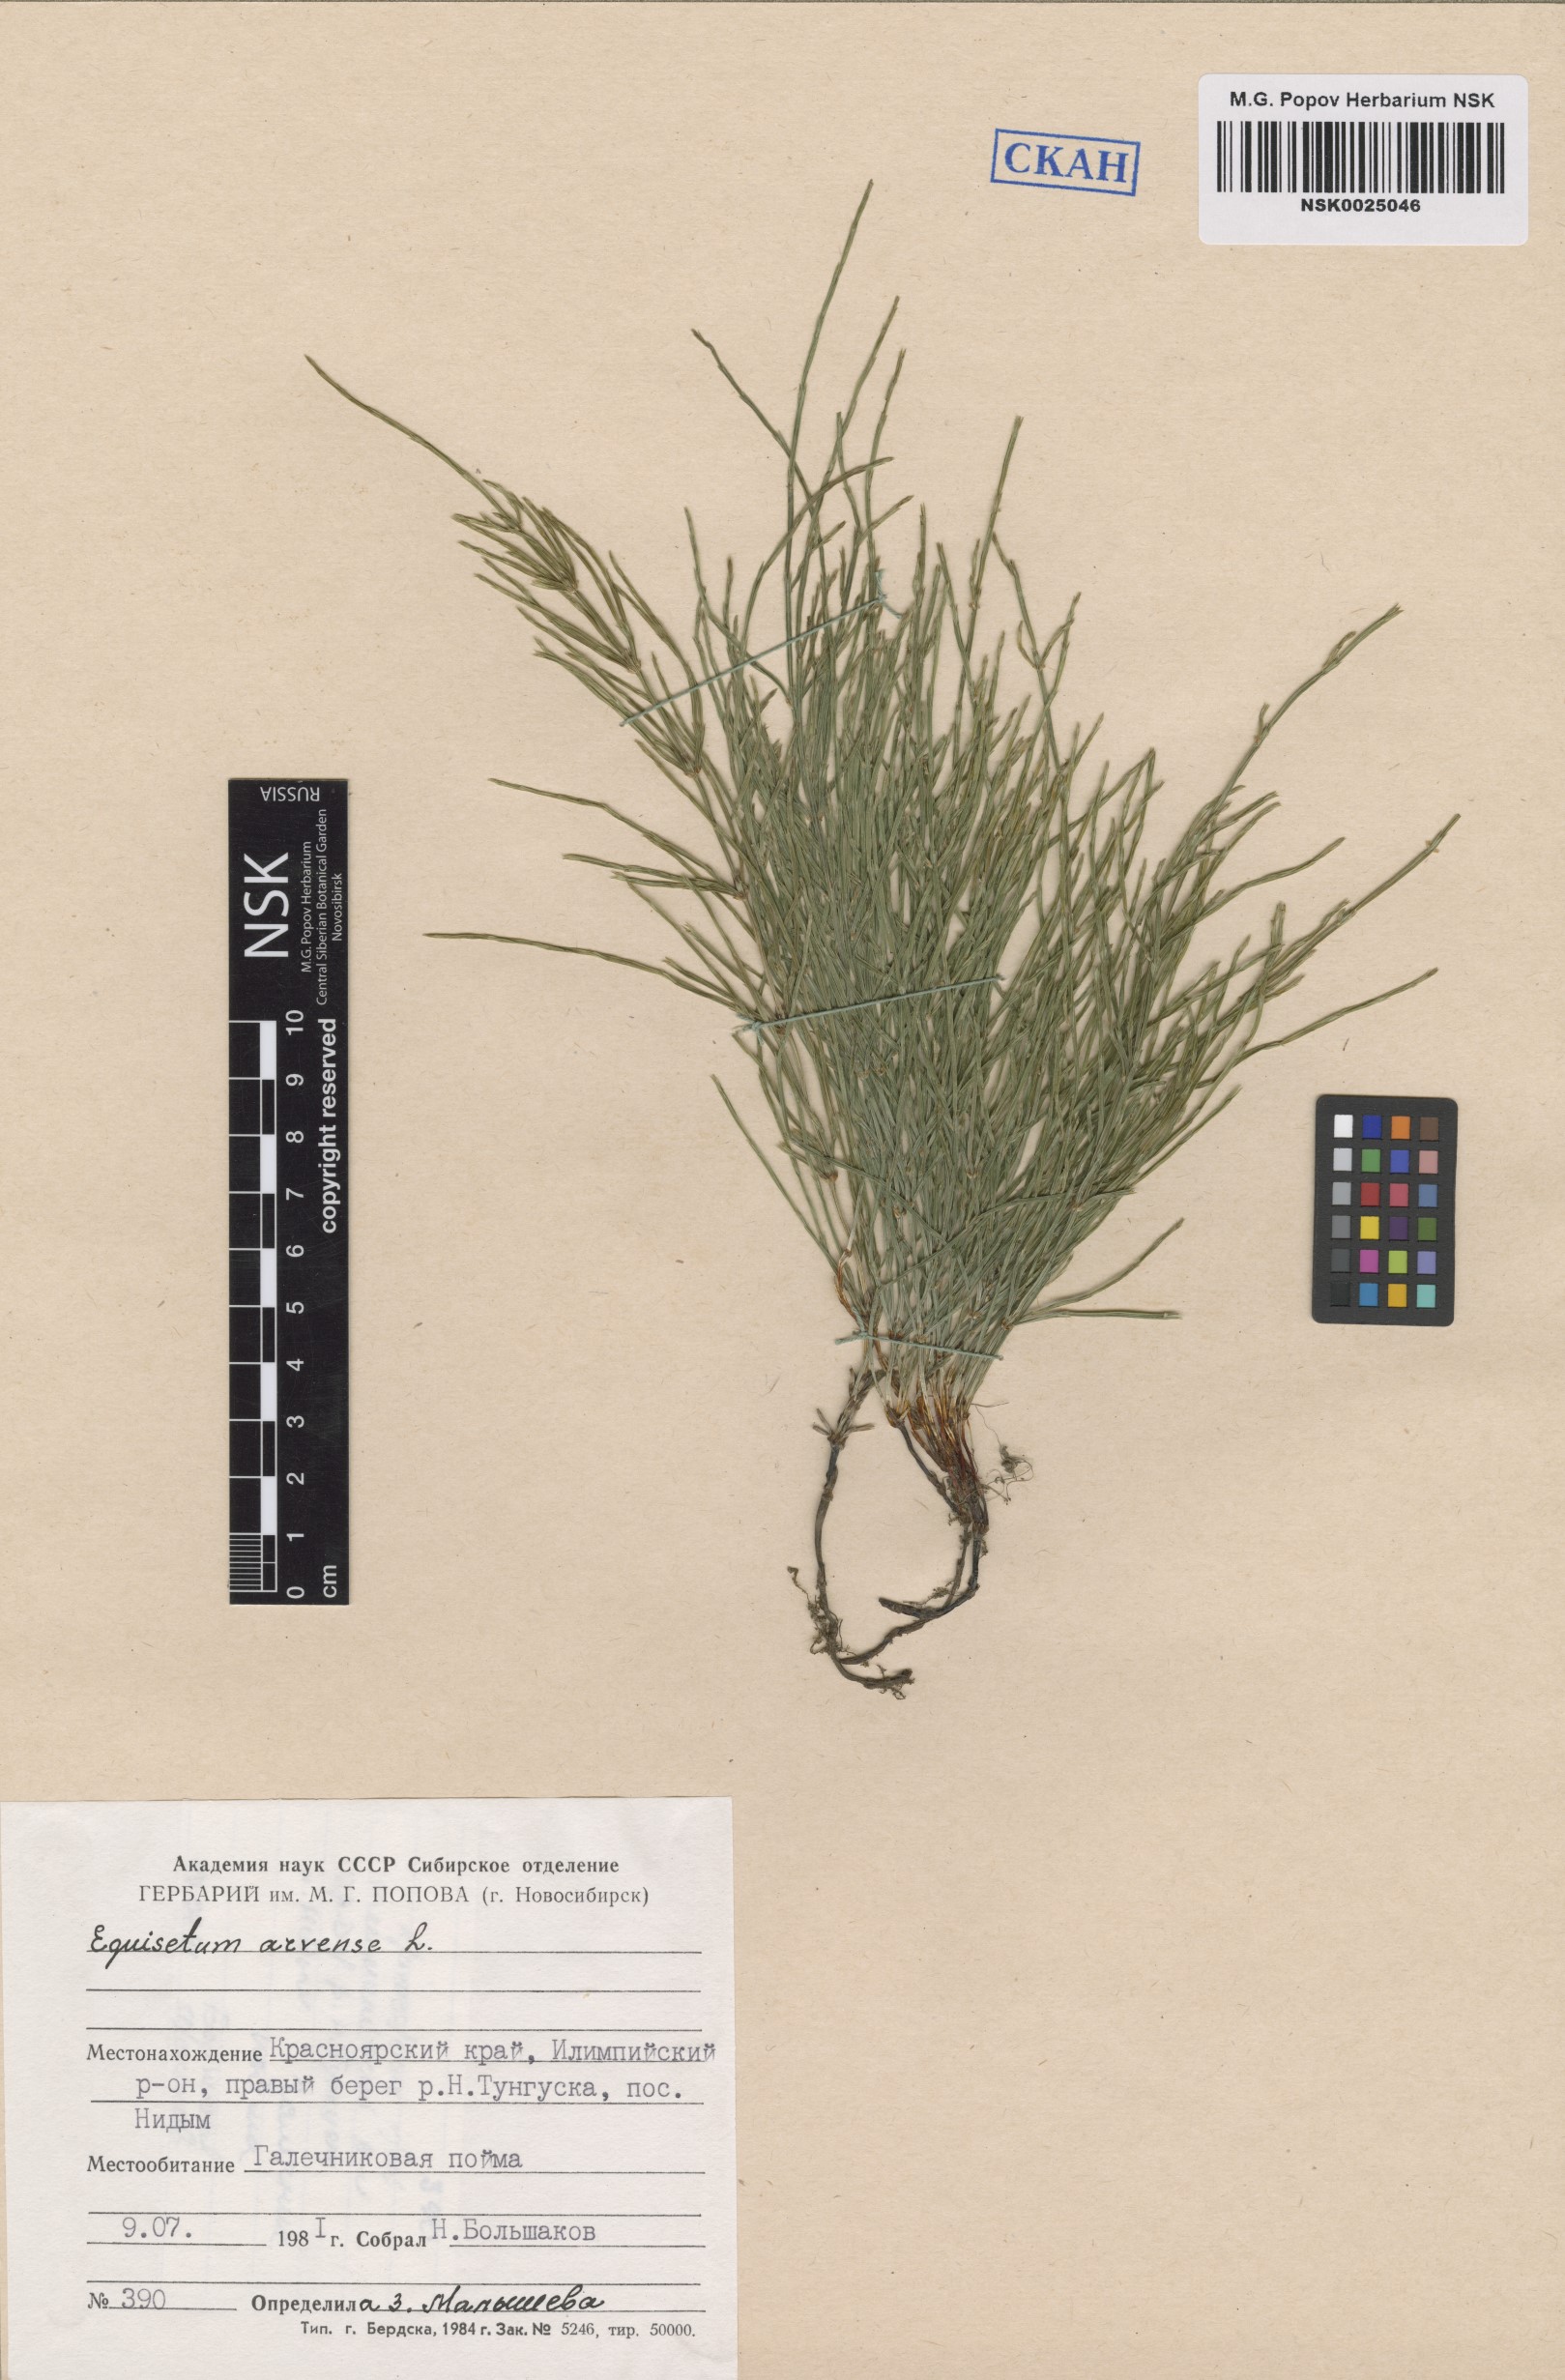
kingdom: Plantae
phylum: Tracheophyta
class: Polypodiopsida
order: Equisetales
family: Equisetaceae
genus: Equisetum
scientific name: Equisetum arvense
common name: Field horsetail
